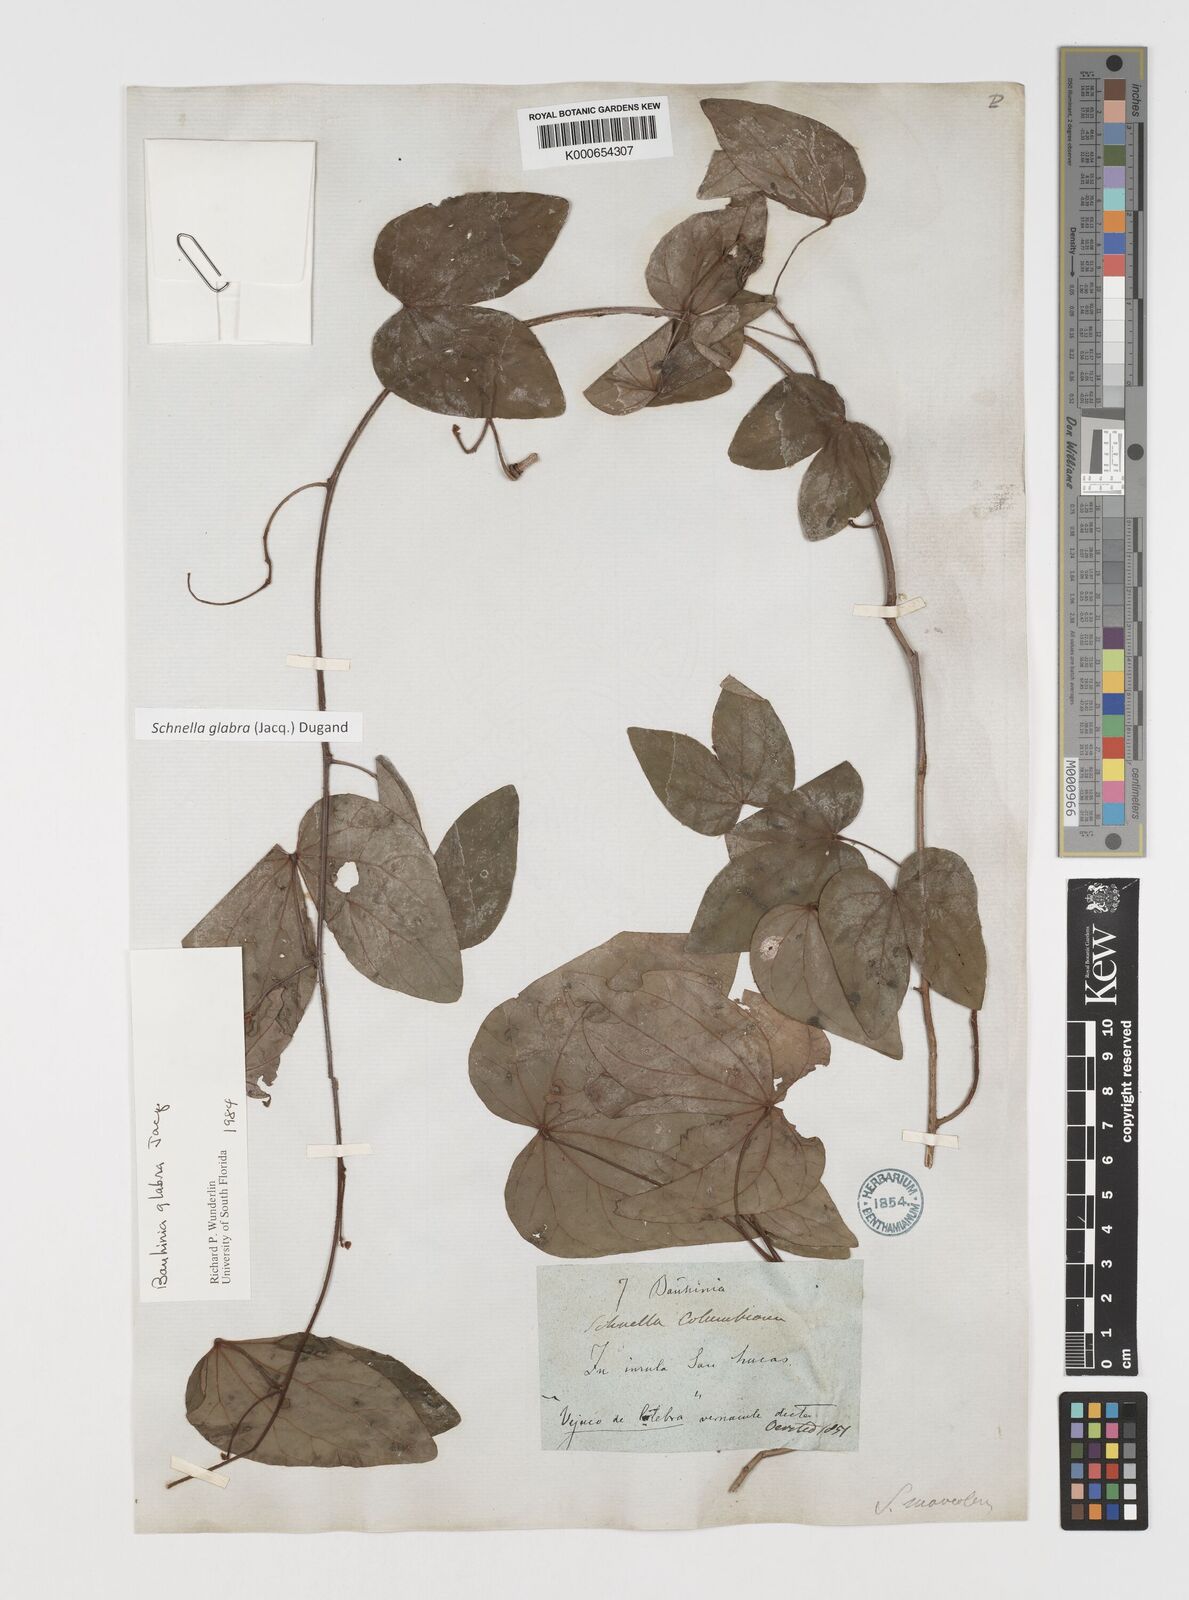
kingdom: Plantae
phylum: Tracheophyta
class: Magnoliopsida
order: Fabales
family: Fabaceae
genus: Schnella
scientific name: Schnella glabra
